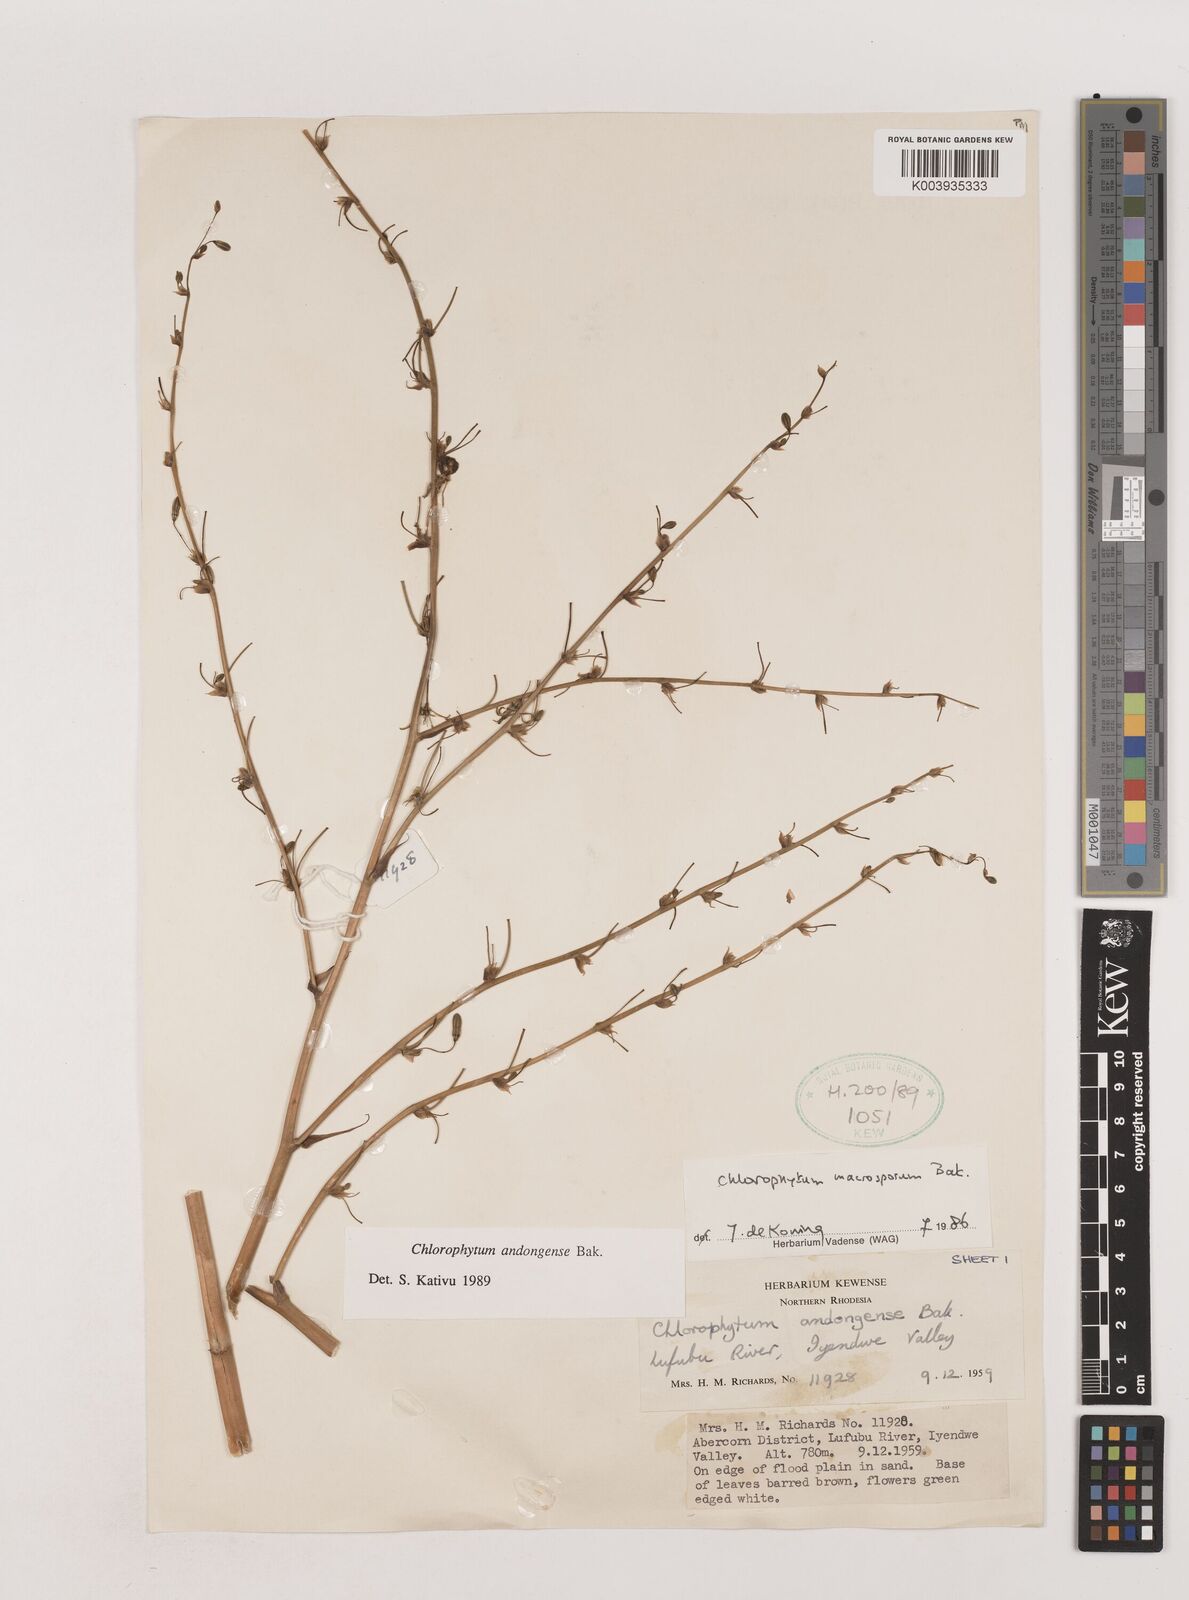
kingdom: Plantae
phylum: Tracheophyta
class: Liliopsida
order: Asparagales
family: Asparagaceae
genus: Chlorophytum
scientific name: Chlorophytum andongense
